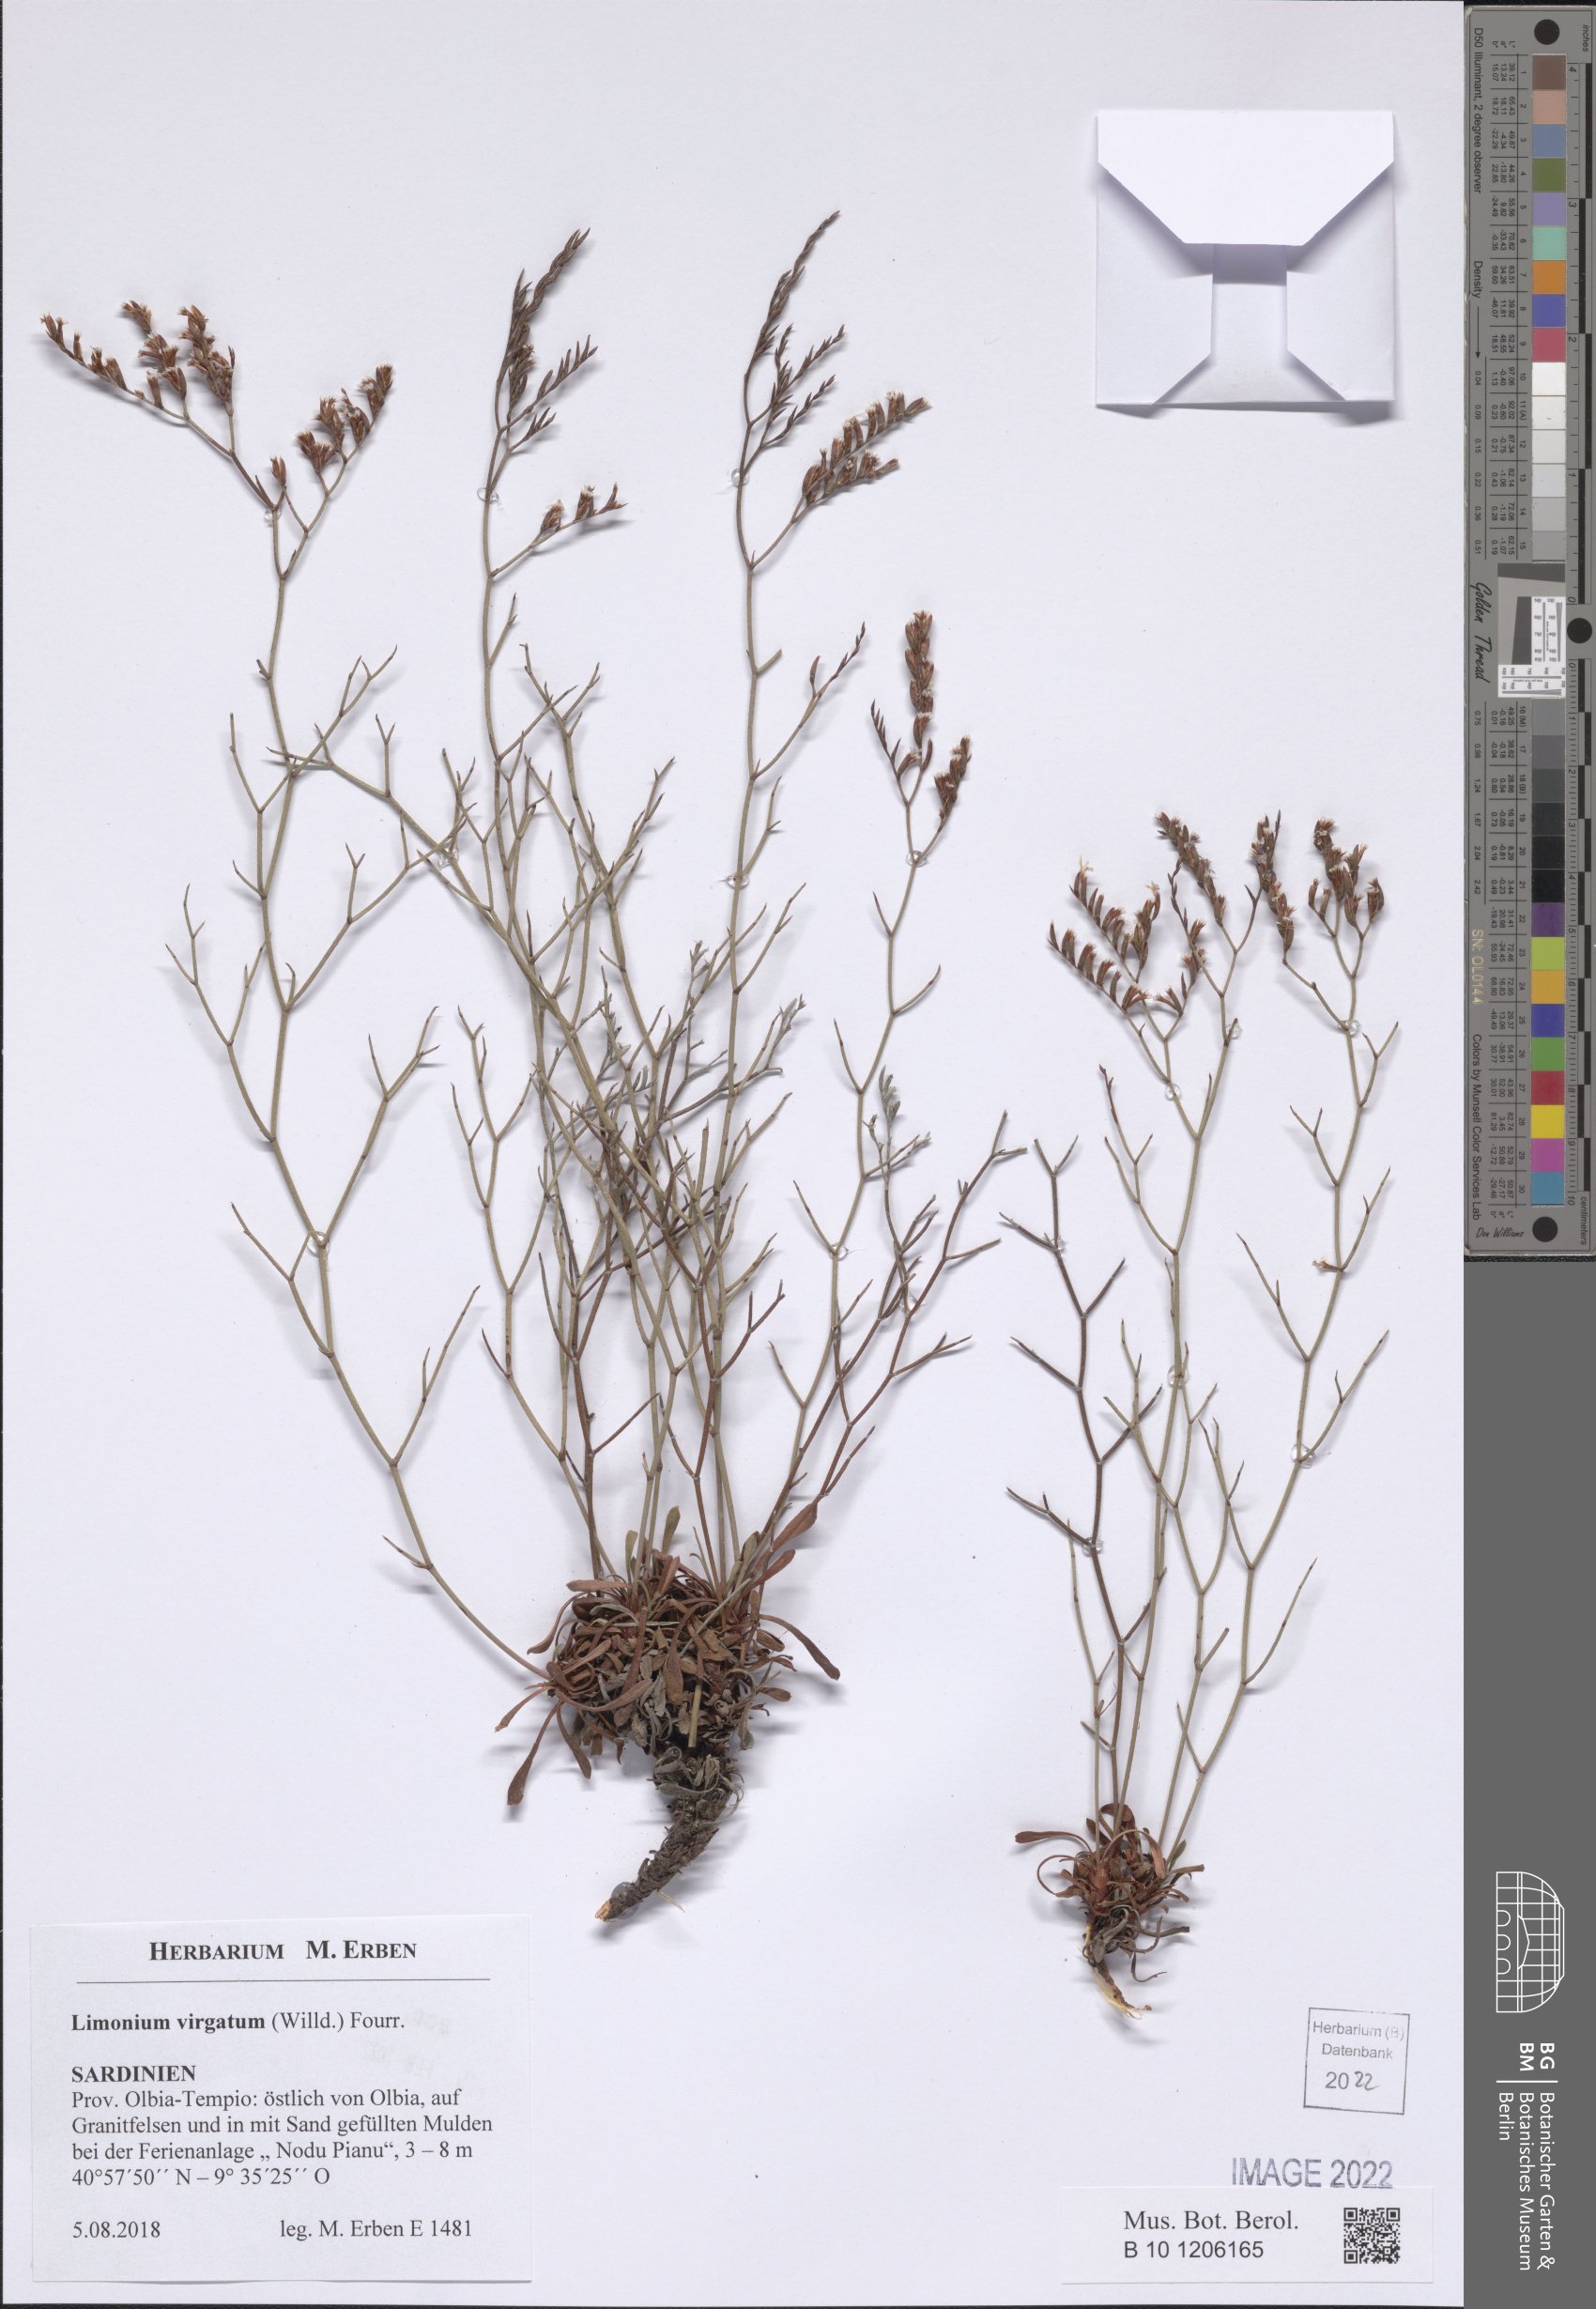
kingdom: Plantae
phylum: Tracheophyta
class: Magnoliopsida
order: Caryophyllales
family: Plumbaginaceae
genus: Limonium
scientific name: Limonium virgatum
